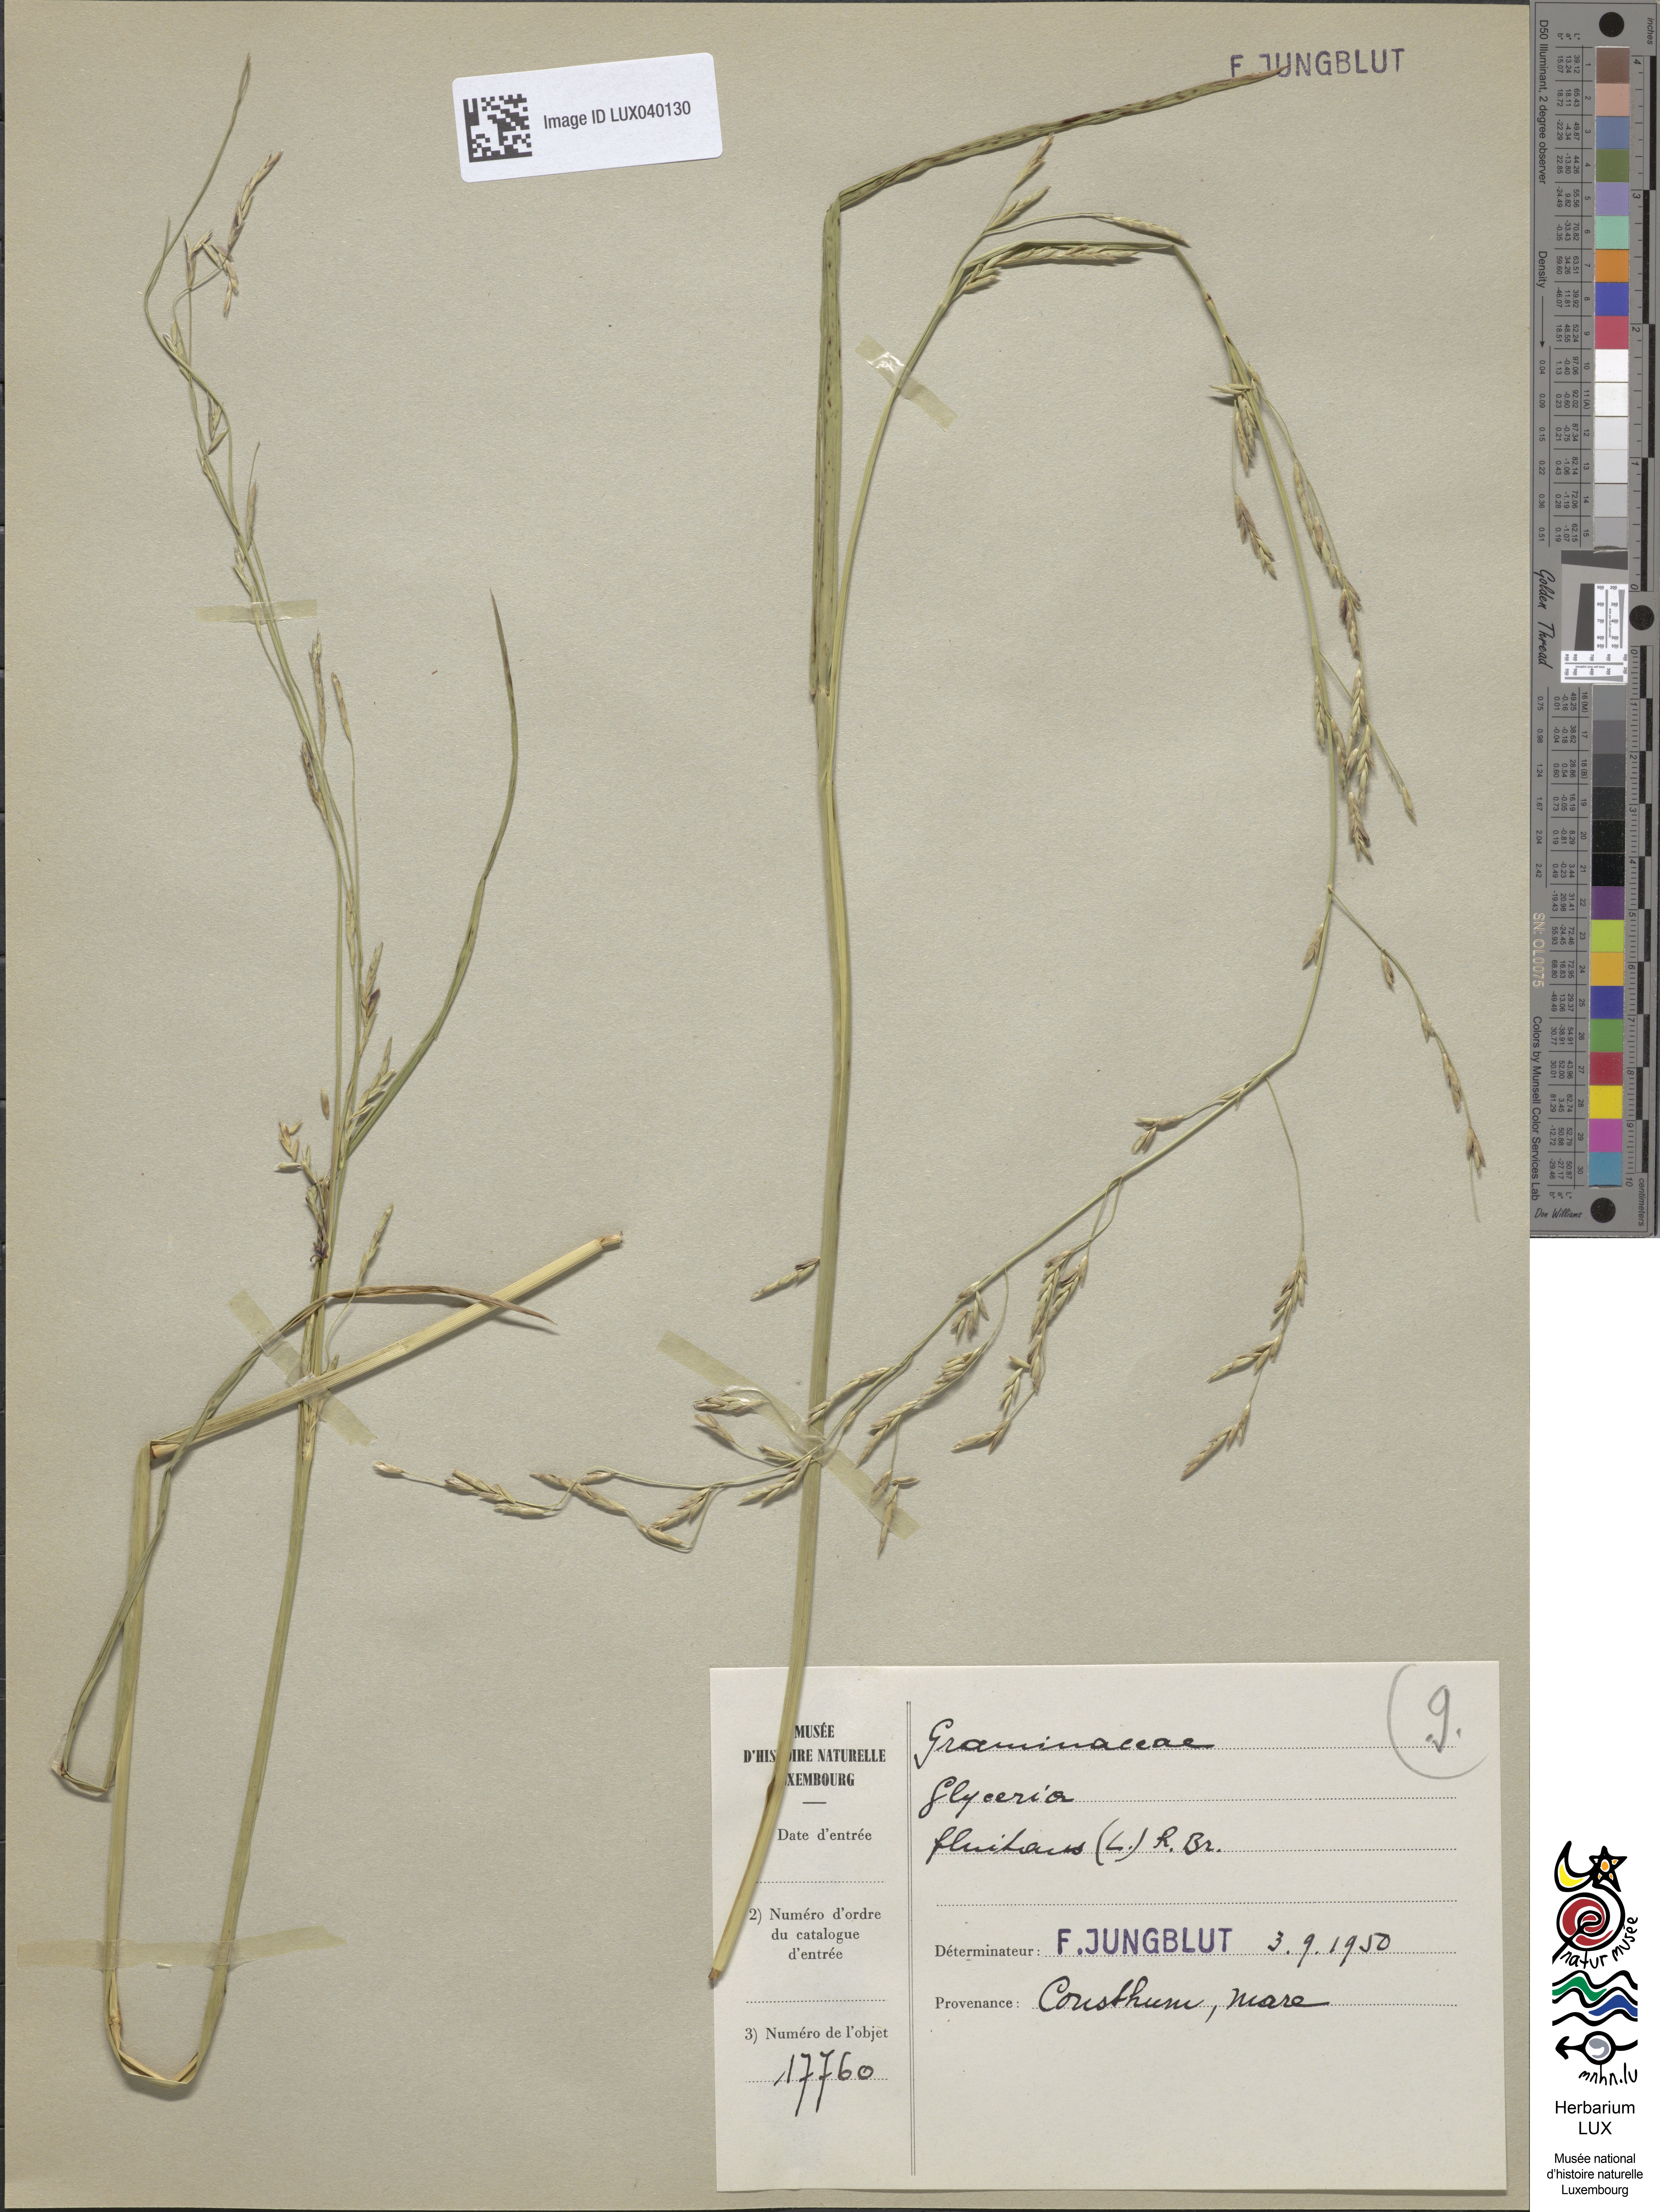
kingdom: Plantae
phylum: Tracheophyta
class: Liliopsida
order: Poales
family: Poaceae
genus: Glyceria
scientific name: Glyceria fluitans
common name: Floating sweet-grass
